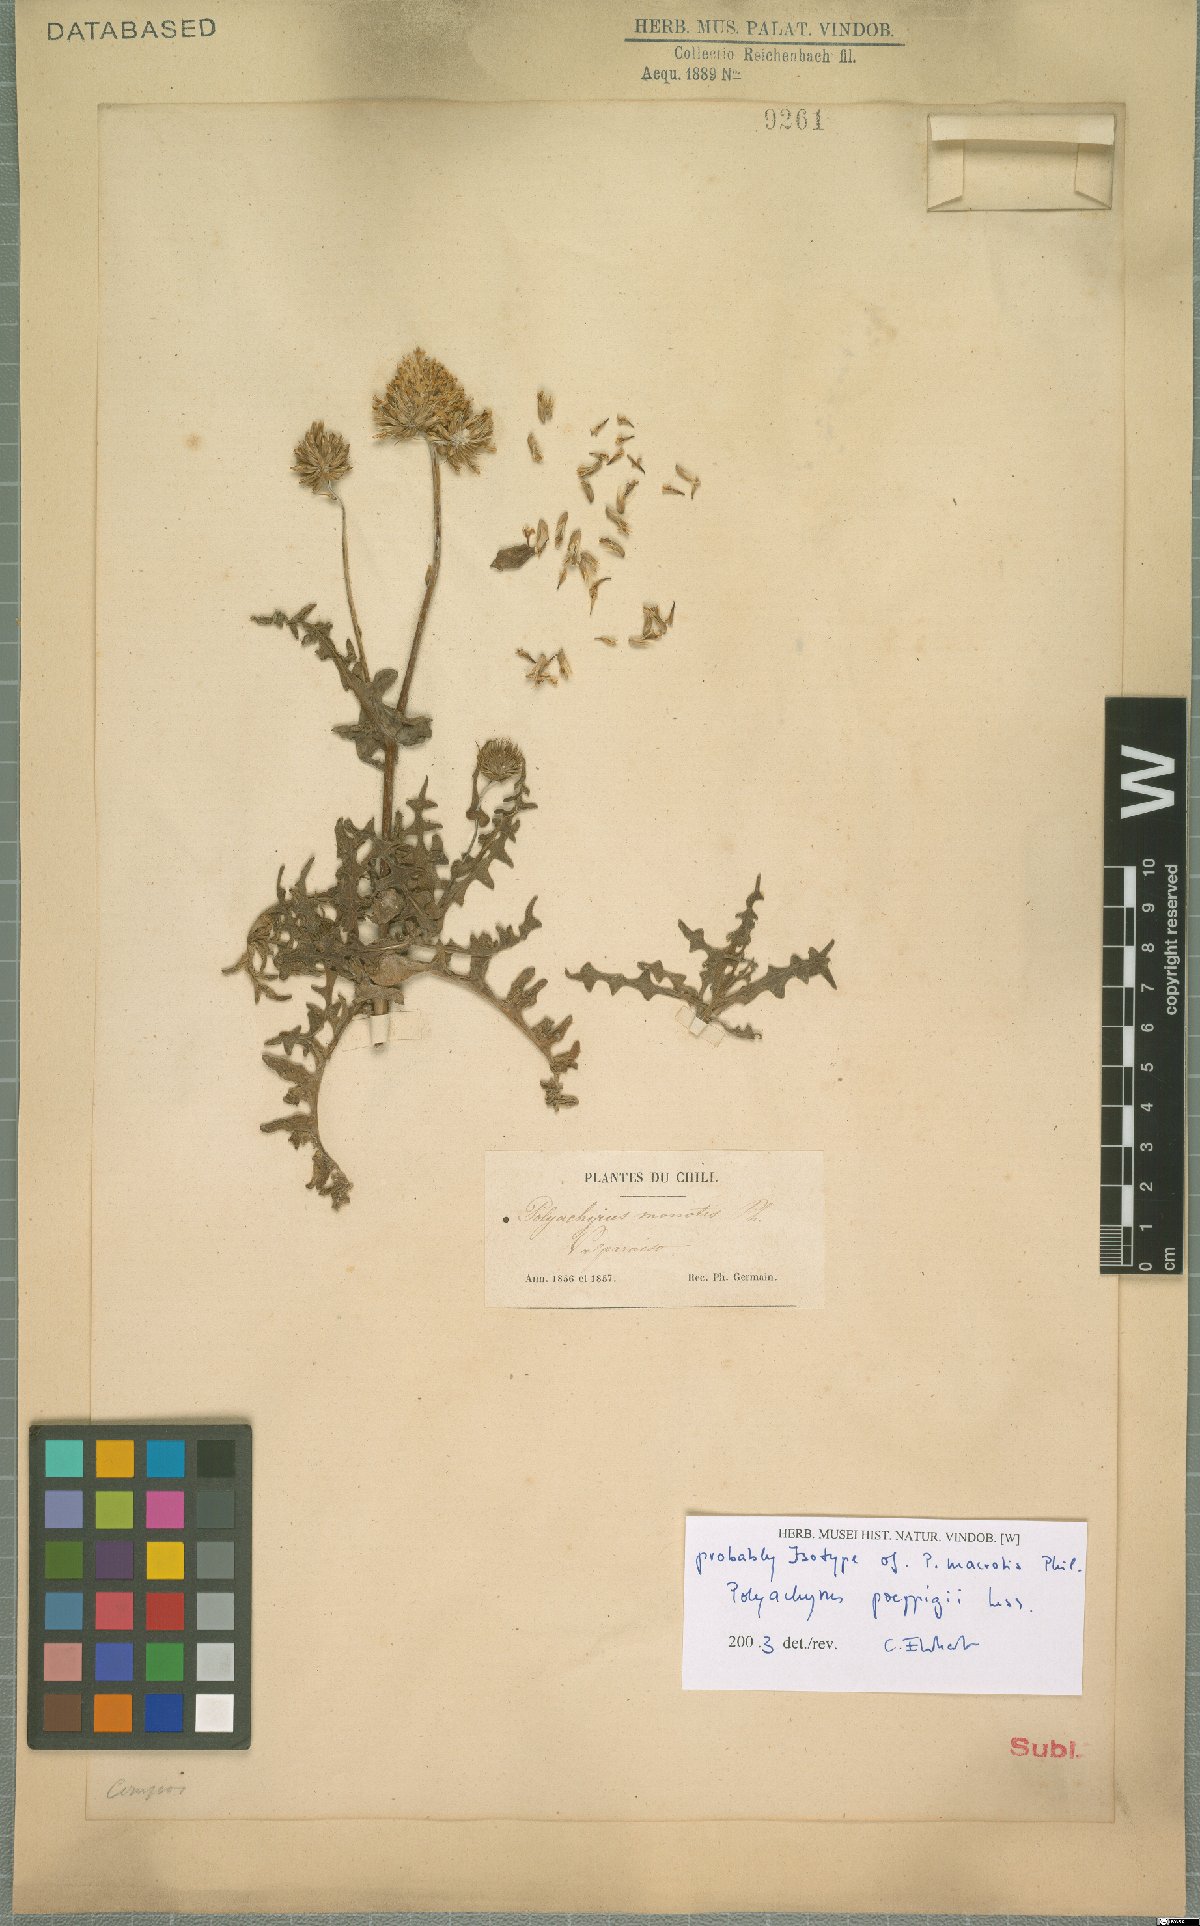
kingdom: Plantae
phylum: Tracheophyta
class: Magnoliopsida
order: Asterales
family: Asteraceae
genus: Polyachyrus
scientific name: Polyachyrus poeppigii
